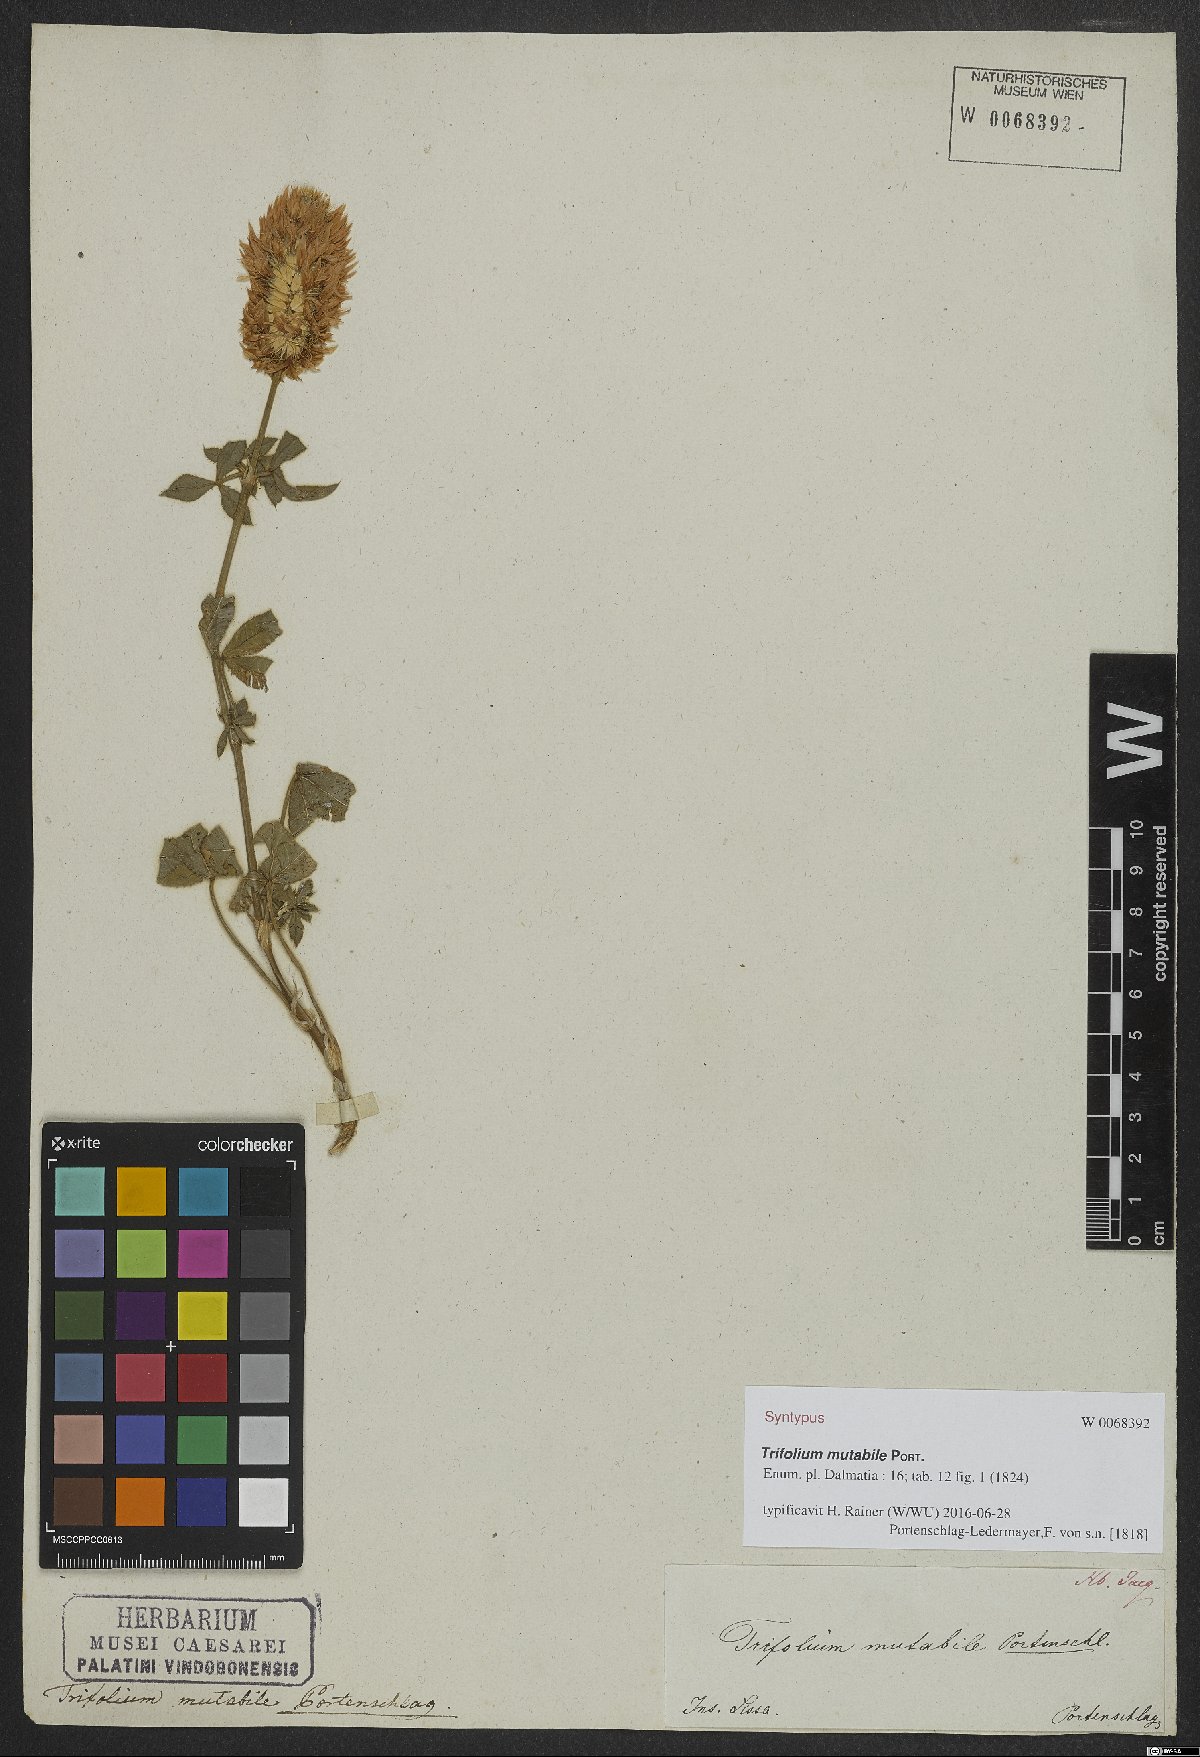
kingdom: Plantae
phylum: Tracheophyta
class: Magnoliopsida
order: Fabales
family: Fabaceae
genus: Trifolium
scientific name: Trifolium mutabile
